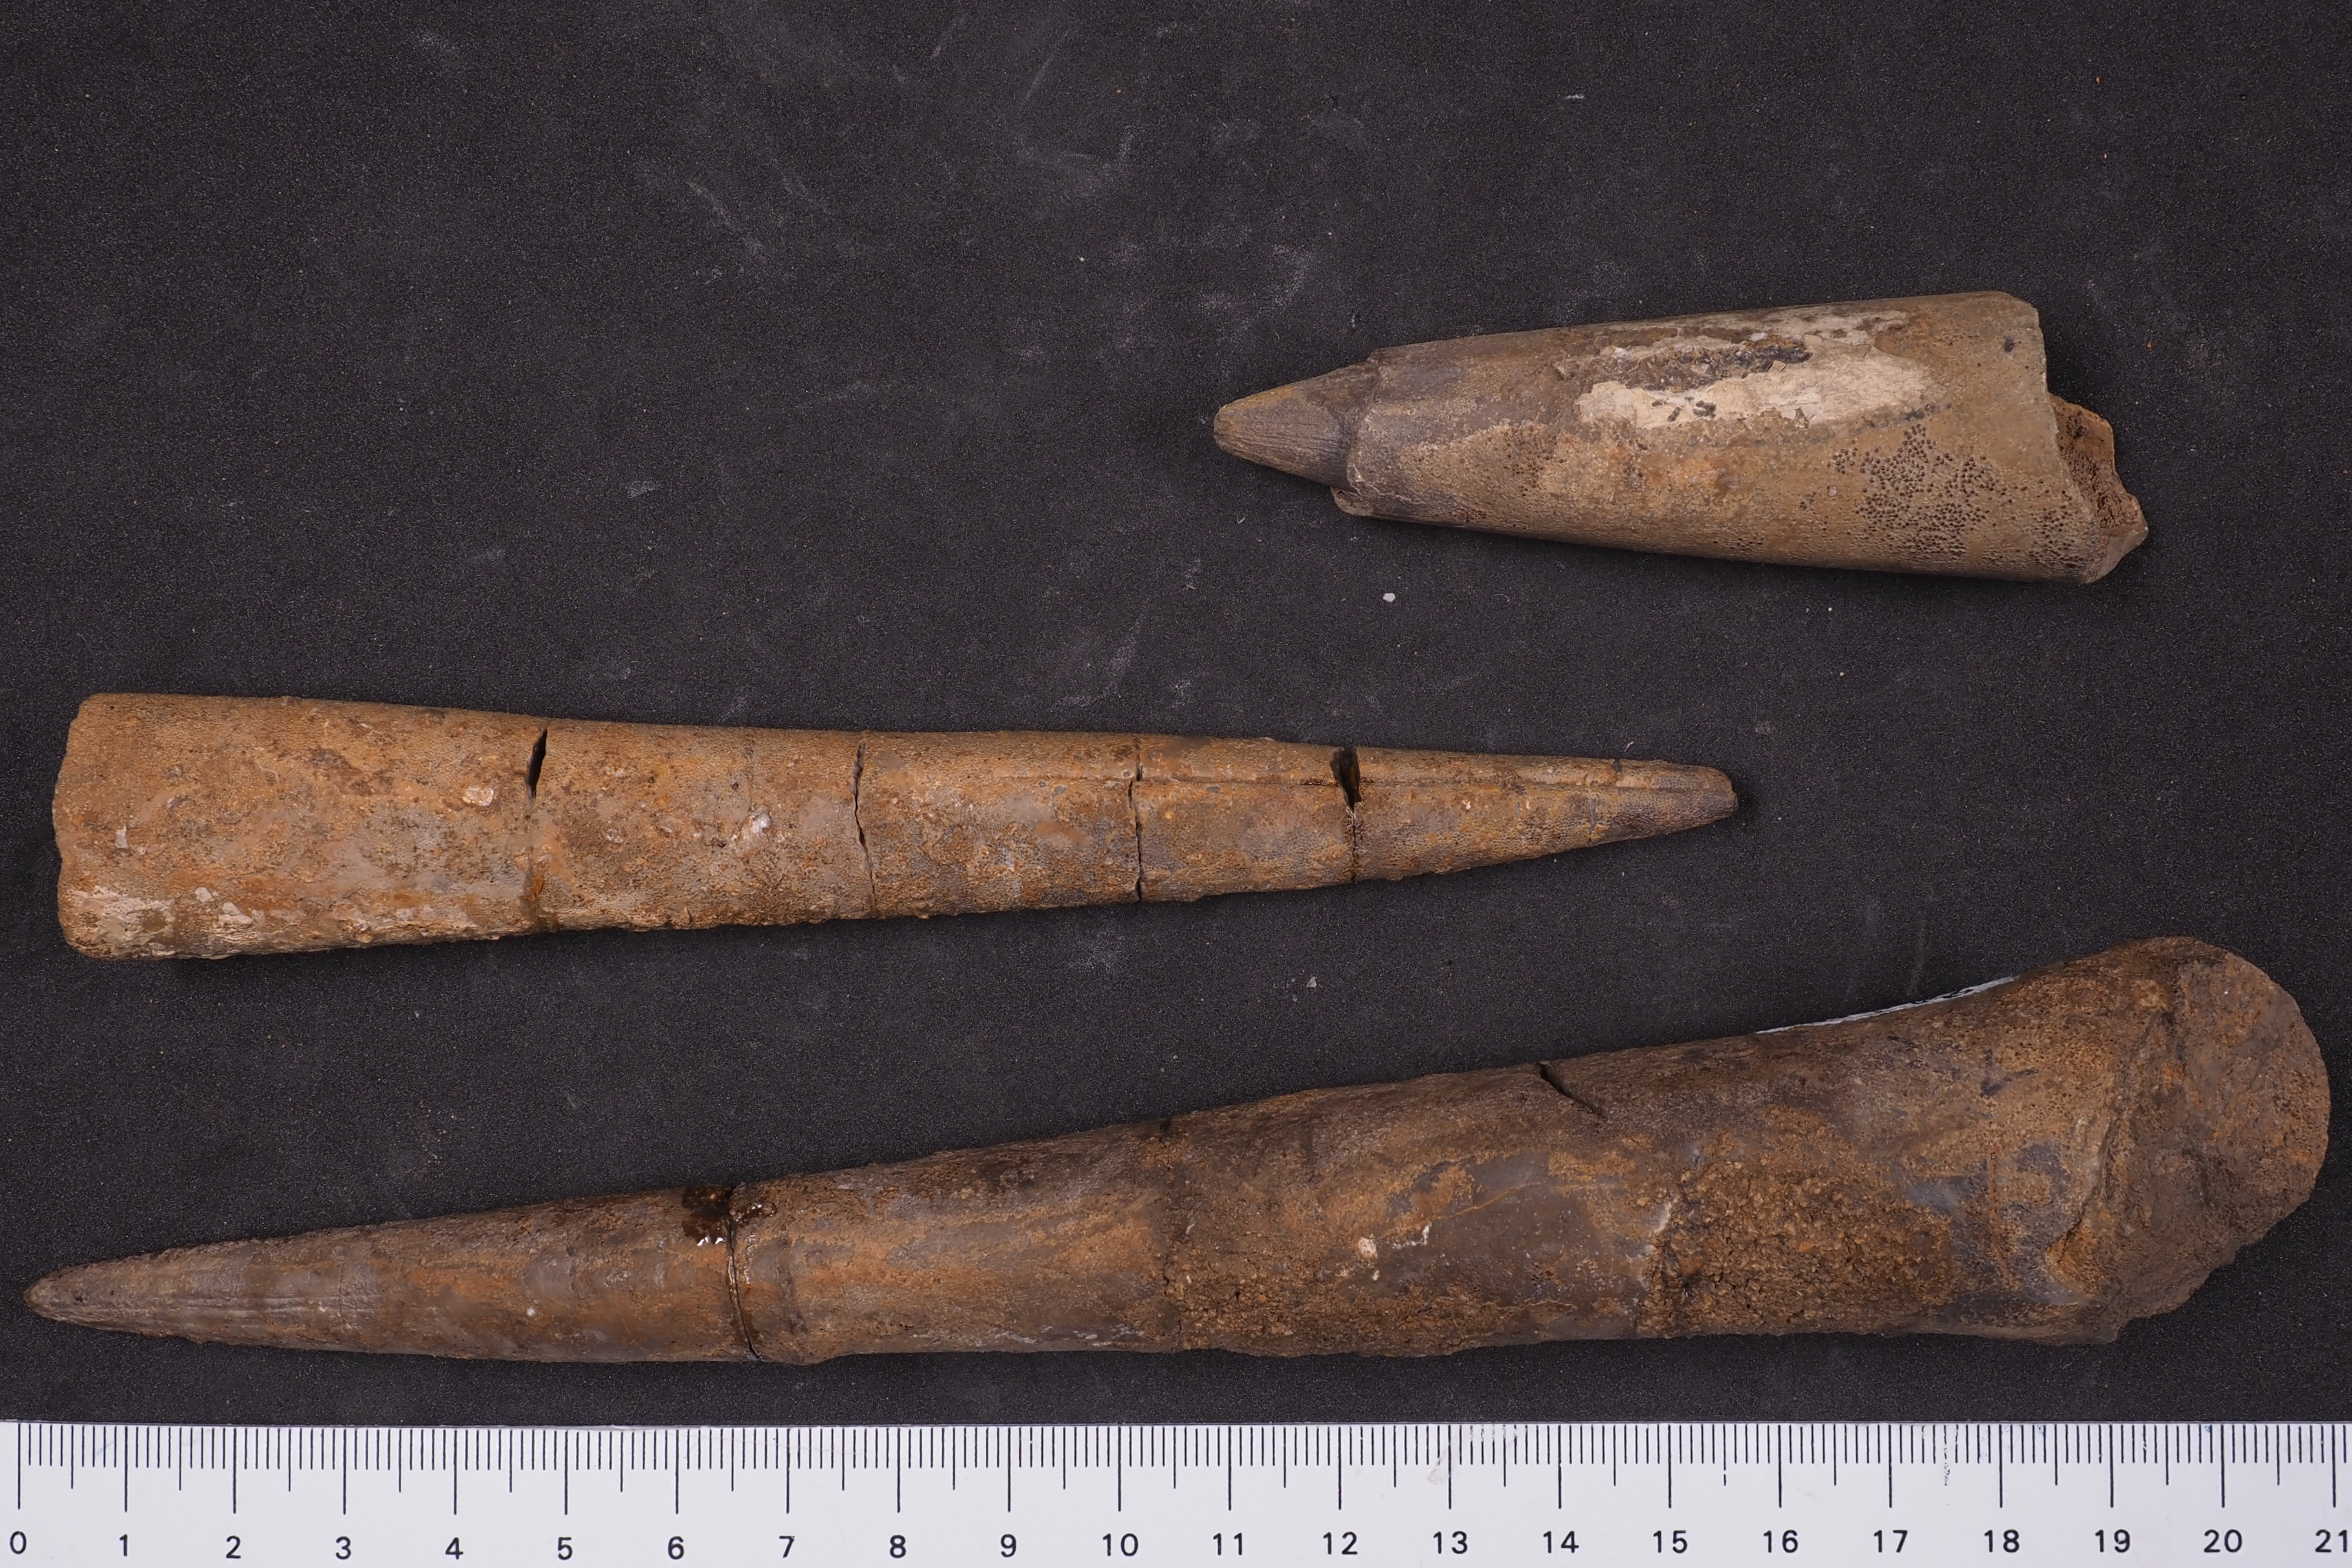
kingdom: Animalia
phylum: Mollusca
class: Cephalopoda
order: Belemnitida
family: Megateuthididae
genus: Megateuthis
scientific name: Megateuthis
